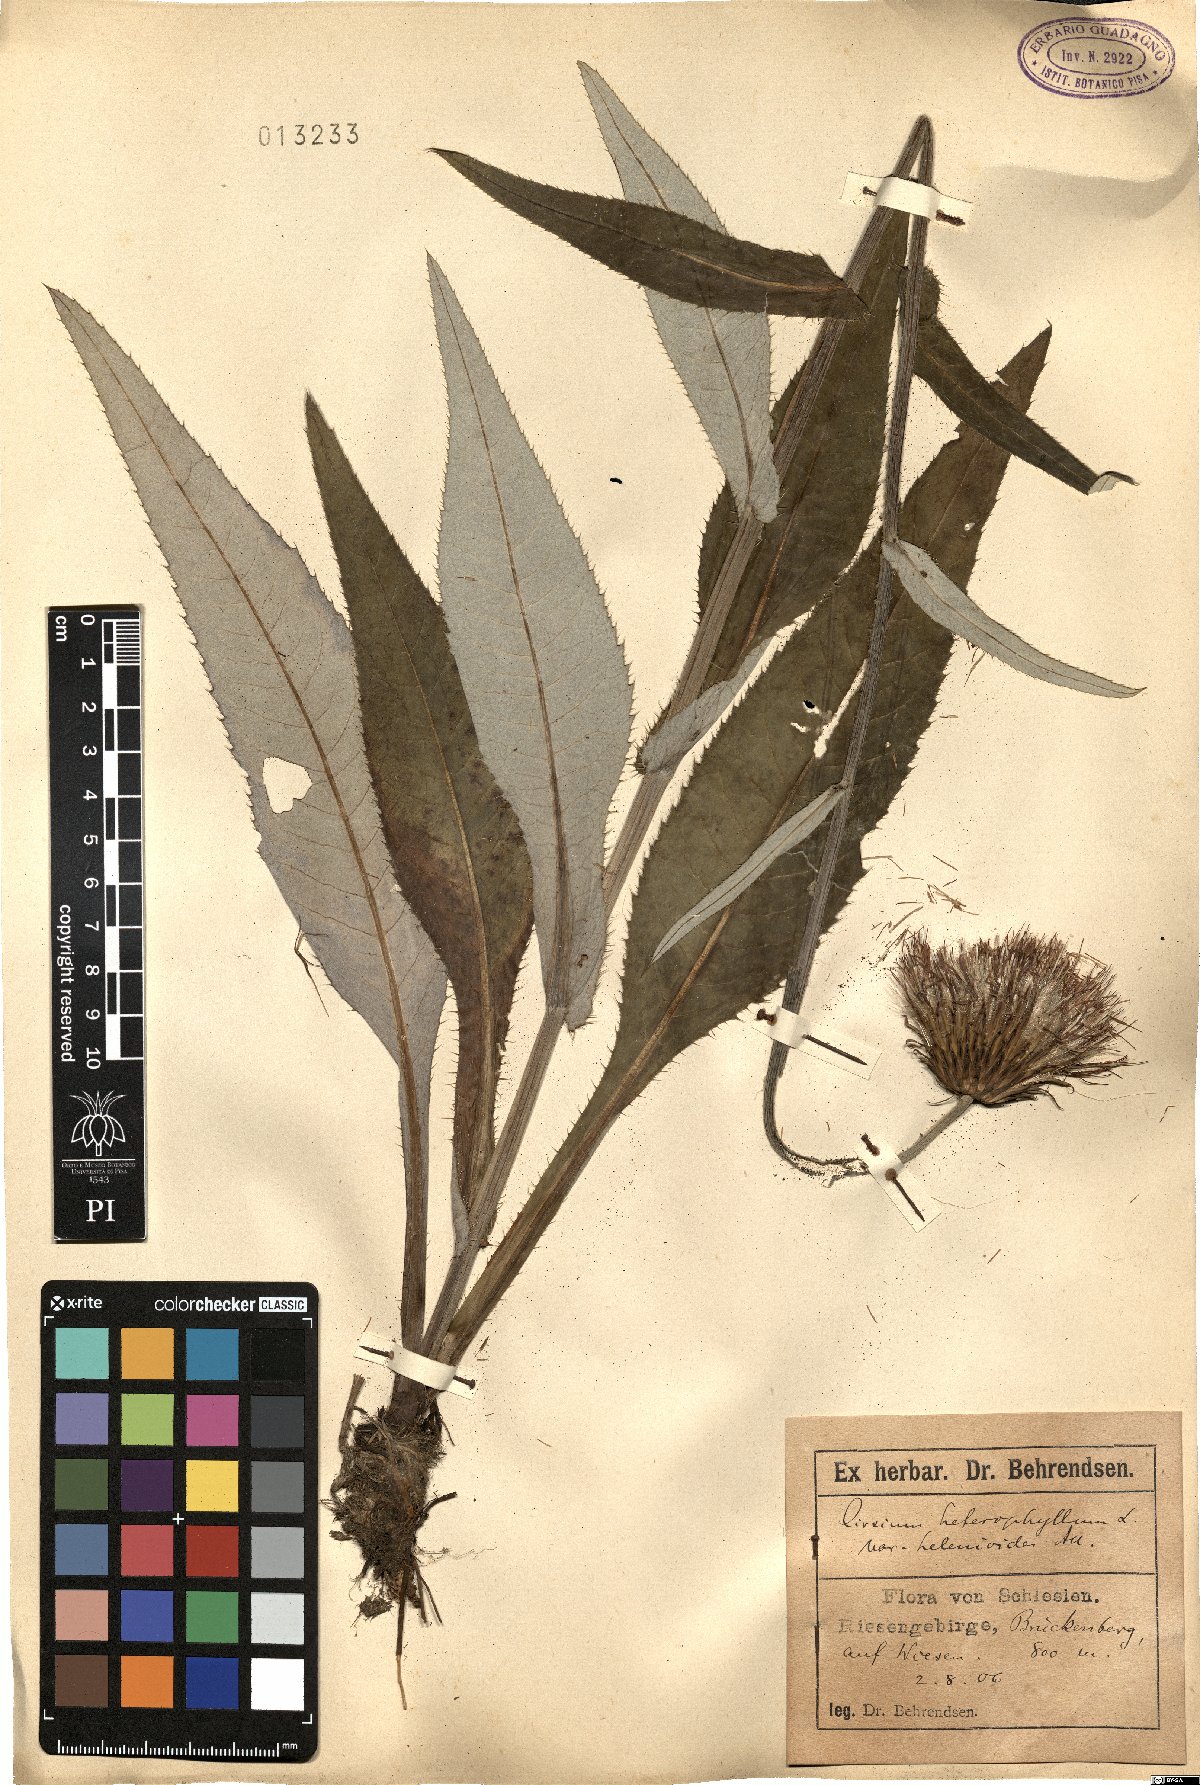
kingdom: Plantae
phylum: Tracheophyta
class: Magnoliopsida
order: Asterales
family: Asteraceae
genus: Cirsium
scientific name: Cirsium heterophyllum
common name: Melancholy thistle
